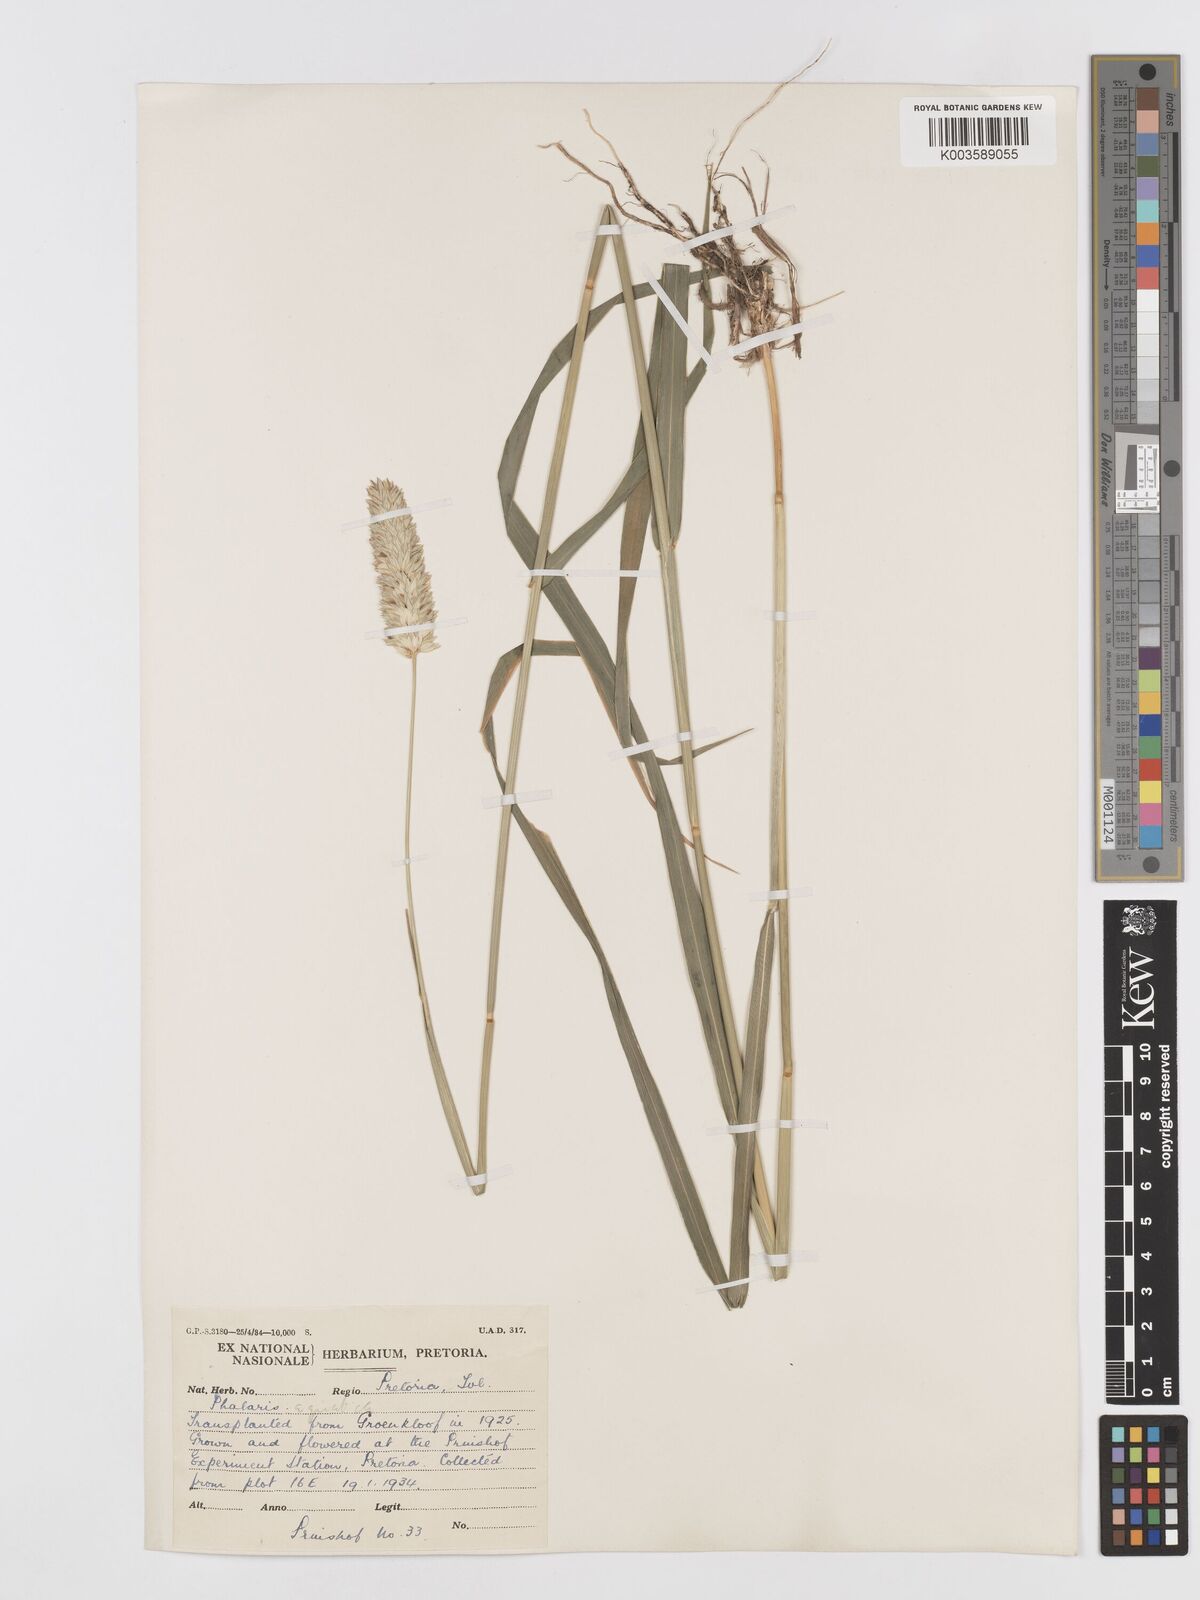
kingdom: Plantae
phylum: Tracheophyta
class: Liliopsida
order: Poales
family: Poaceae
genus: Phalaris
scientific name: Phalaris aquatica
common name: Bulbous canary-grass
